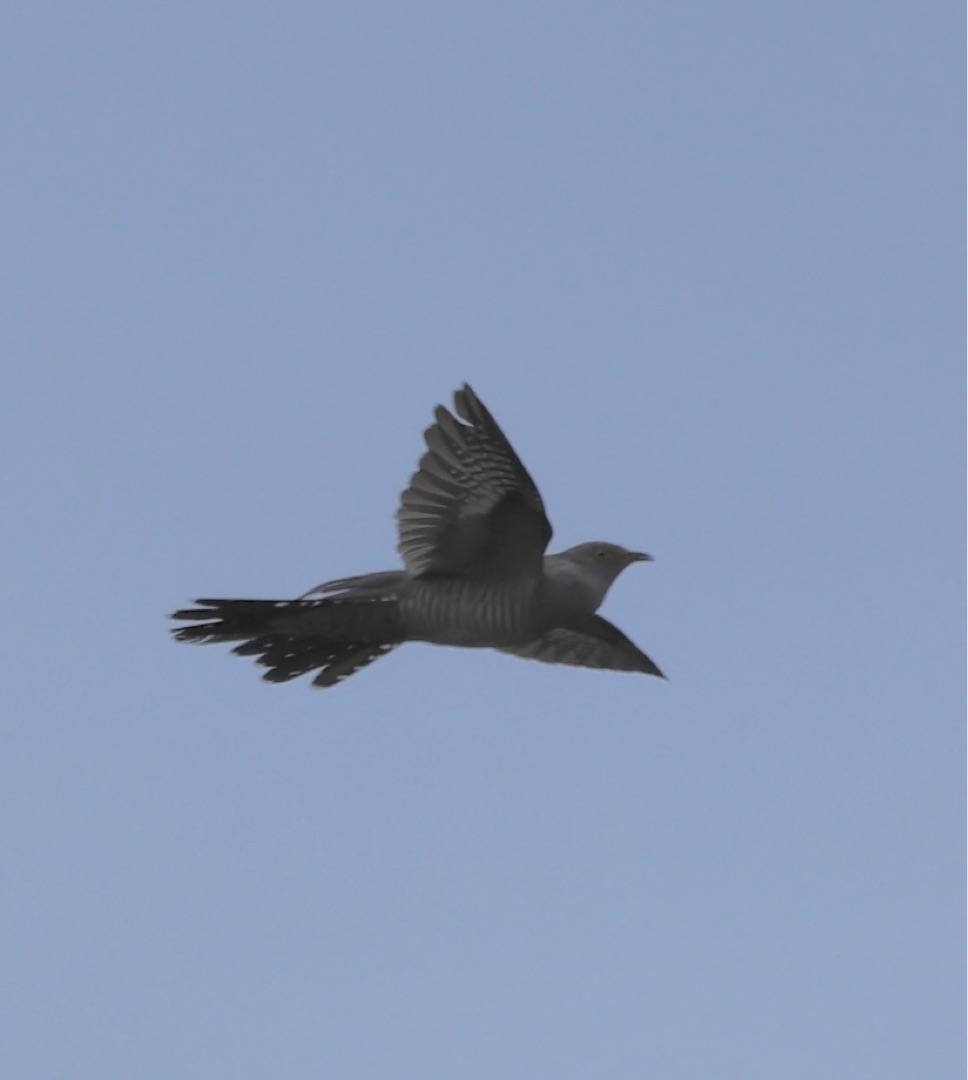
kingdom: Animalia
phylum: Chordata
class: Aves
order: Cuculiformes
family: Cuculidae
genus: Cuculus
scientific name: Cuculus canorus
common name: Gøg
